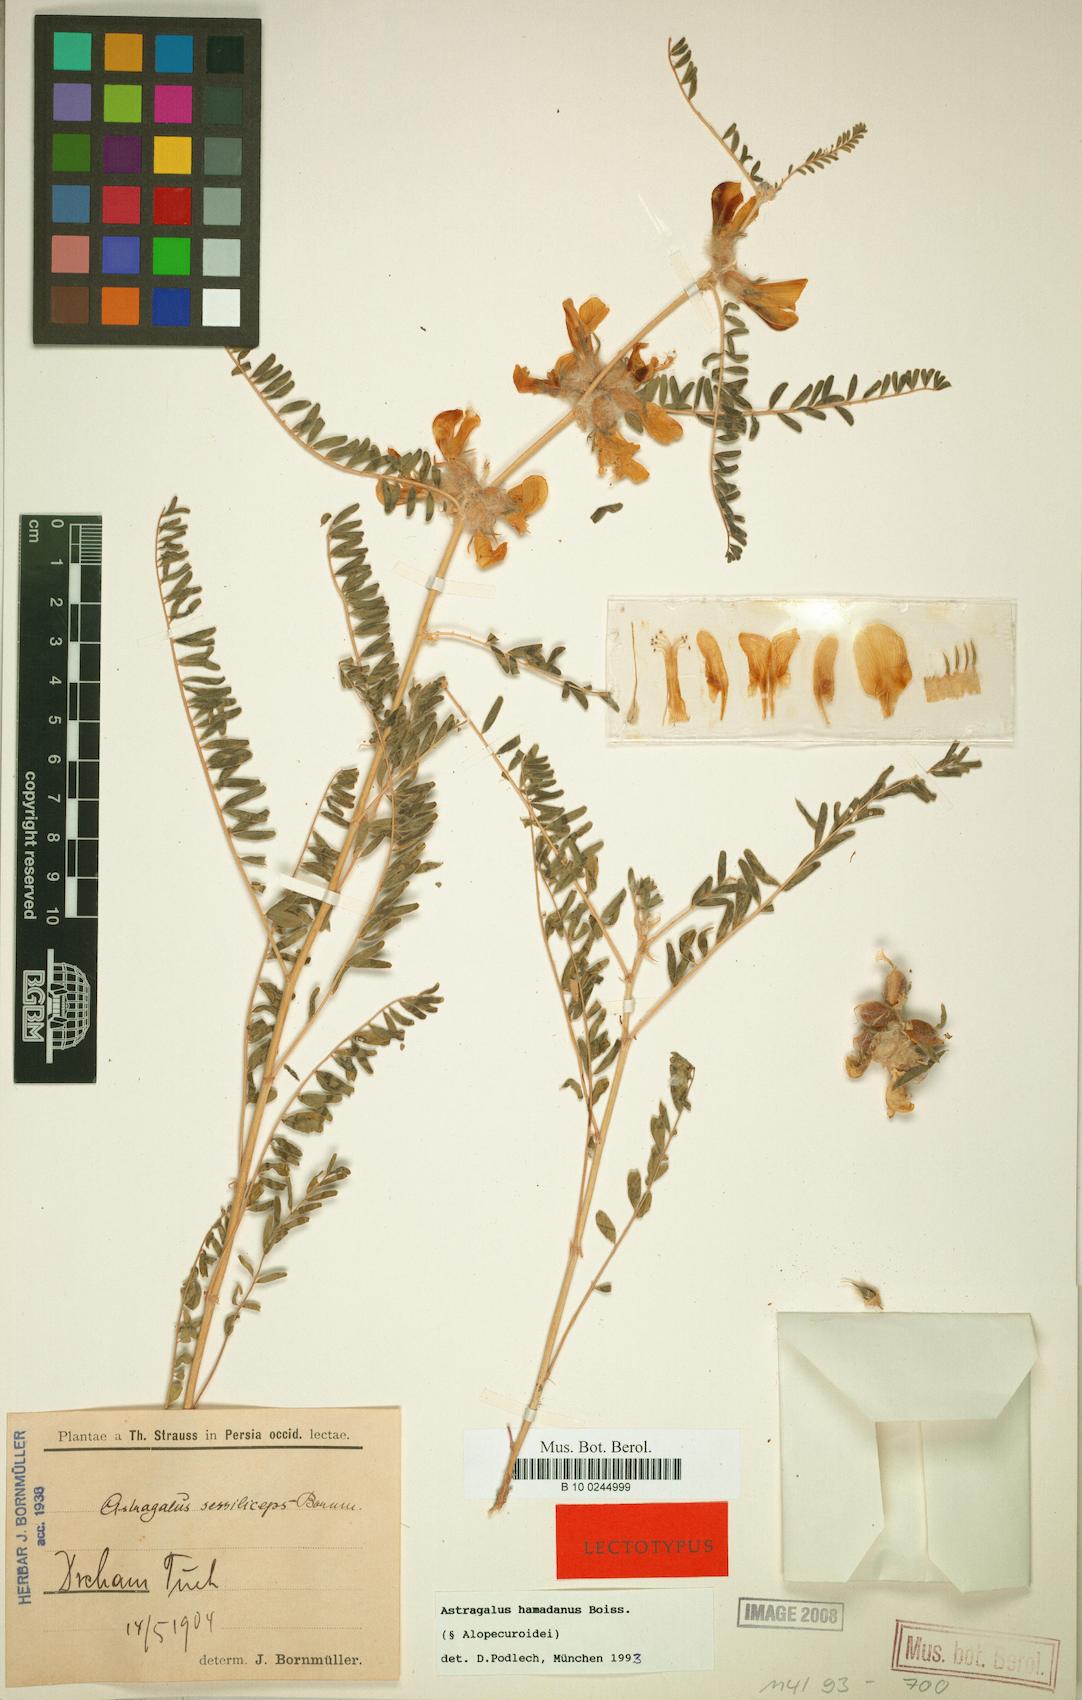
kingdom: Plantae
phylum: Tracheophyta
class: Magnoliopsida
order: Fabales
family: Fabaceae
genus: Astragalus
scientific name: Astragalus hamadanus
